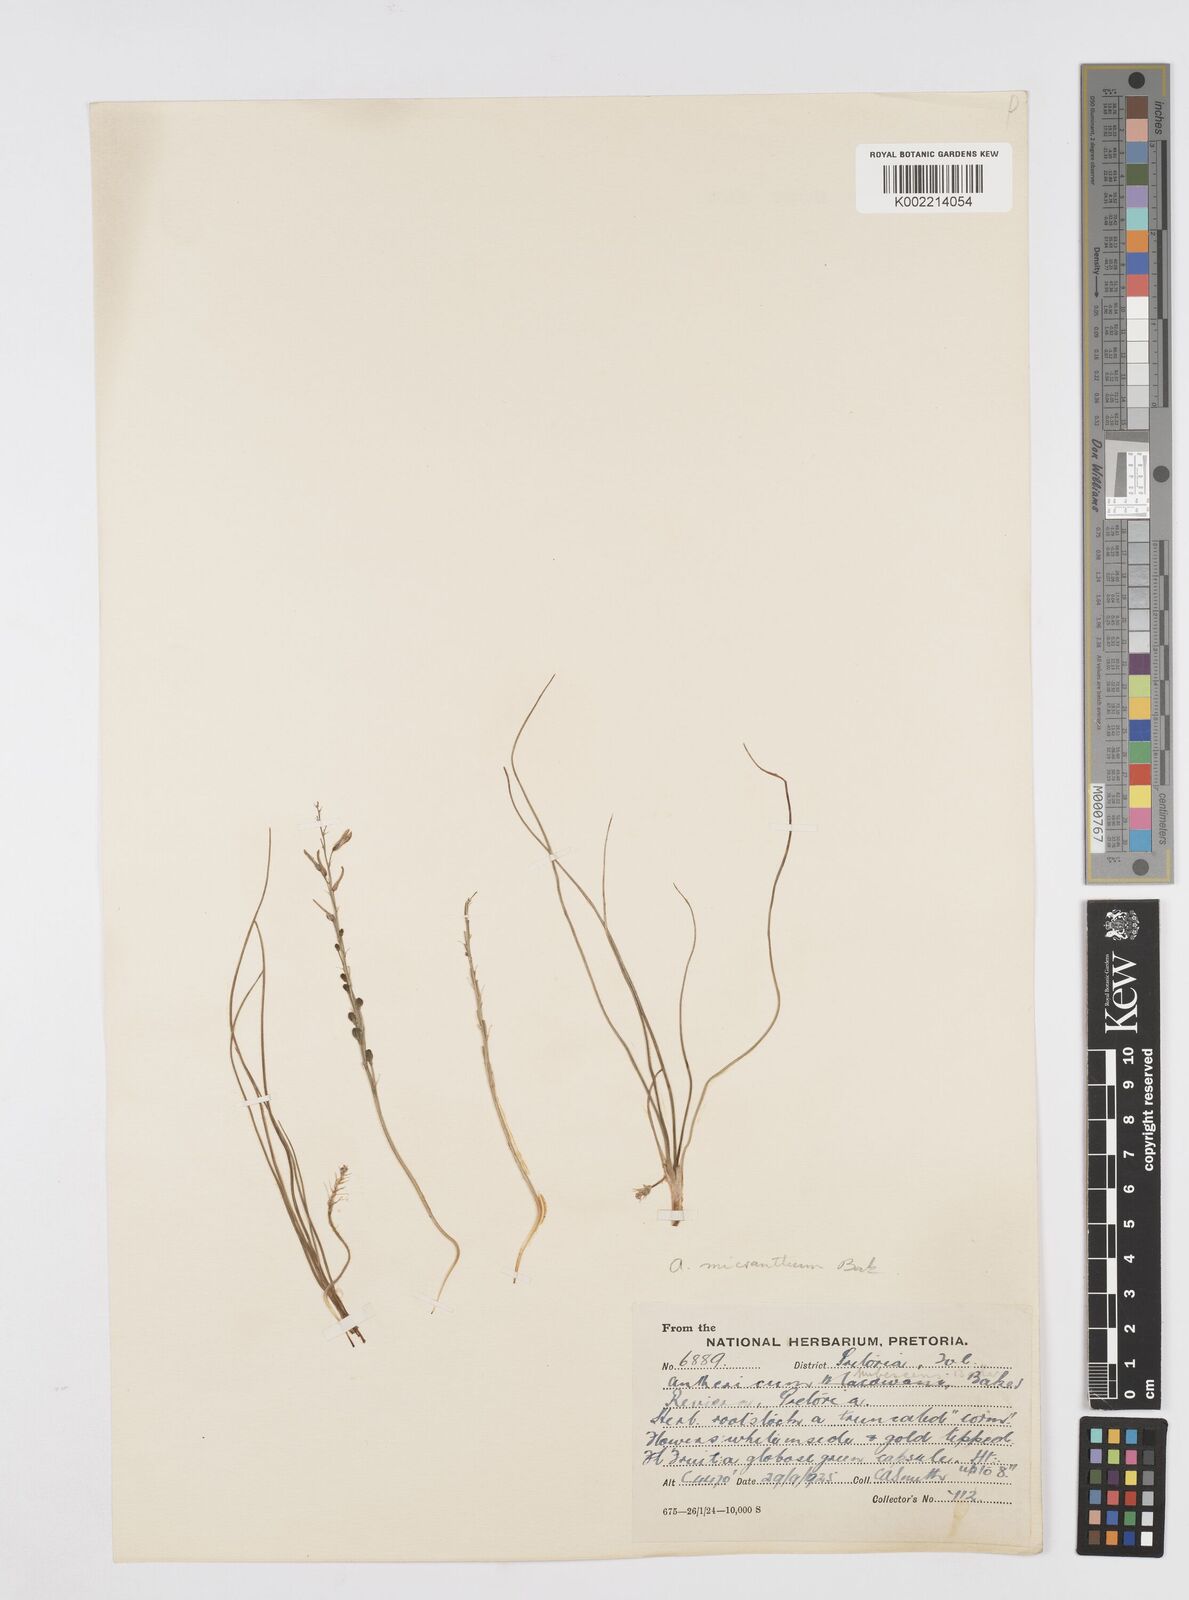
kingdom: Plantae
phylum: Tracheophyta
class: Liliopsida
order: Asparagales
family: Asphodelaceae
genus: Trachyandra
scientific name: Trachyandra
